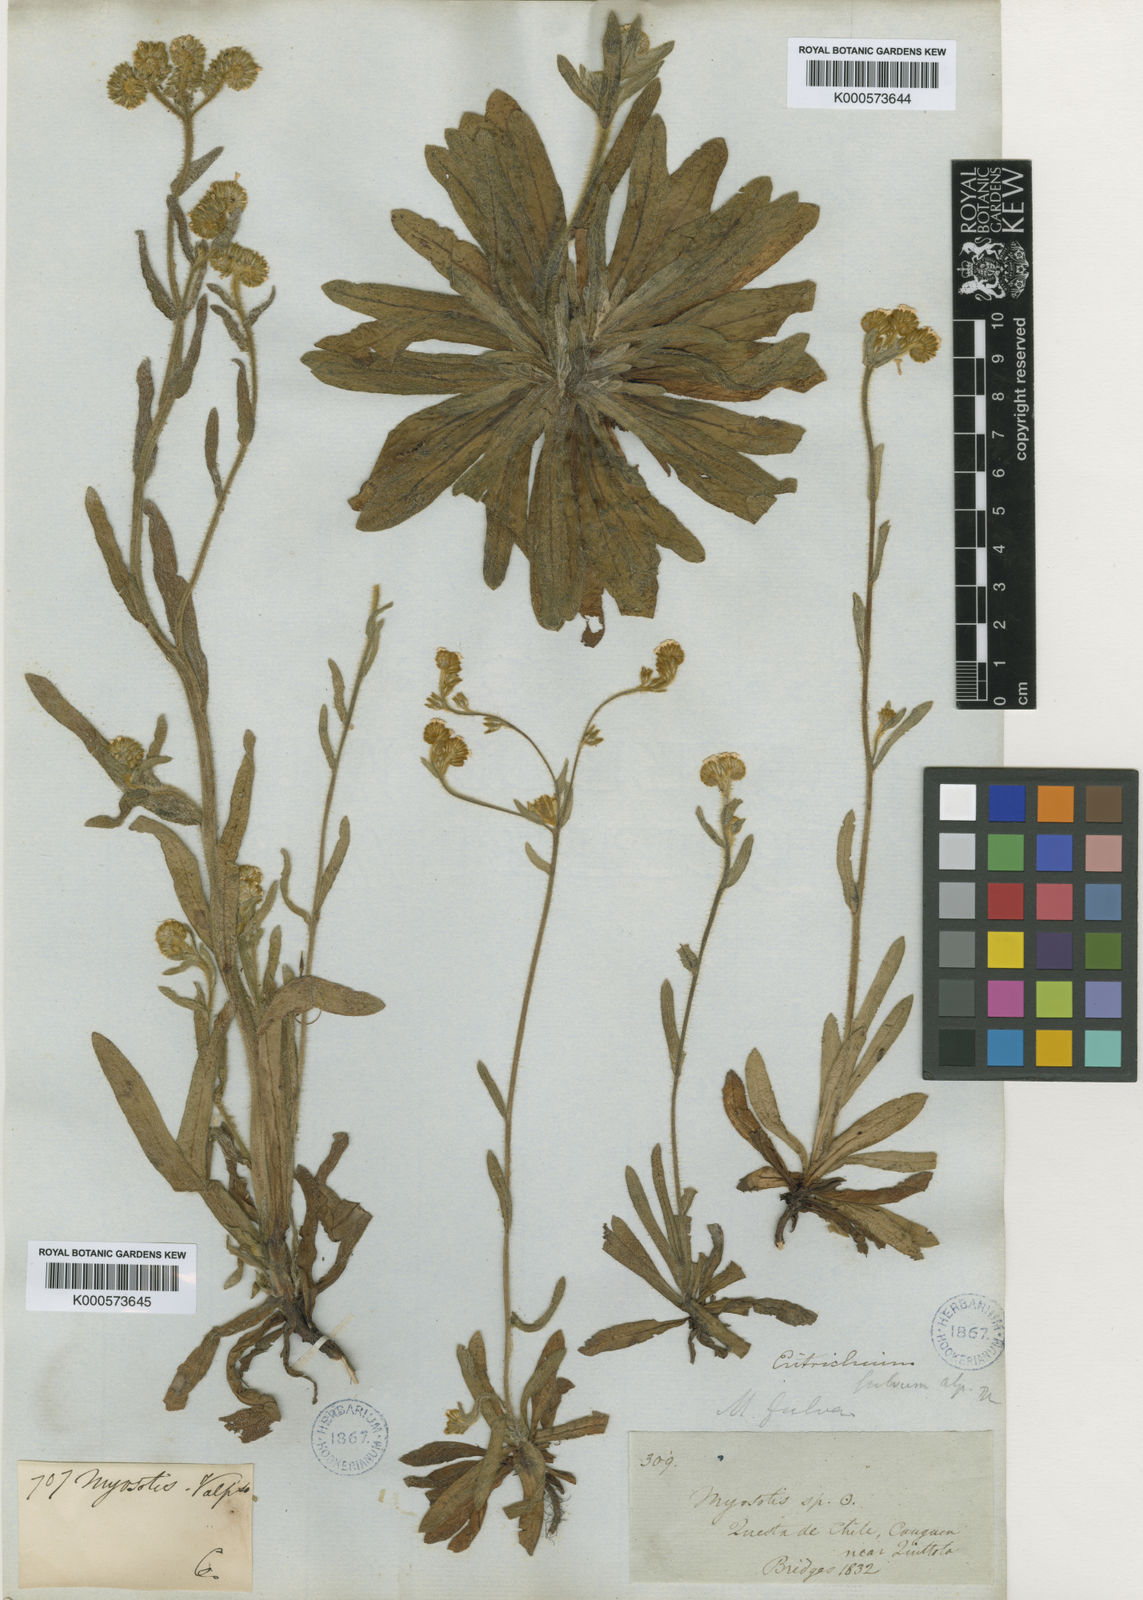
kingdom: Plantae
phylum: Tracheophyta
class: Magnoliopsida
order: Boraginales
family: Boraginaceae
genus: Plagiobothrys
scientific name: Plagiobothrys fulvus
